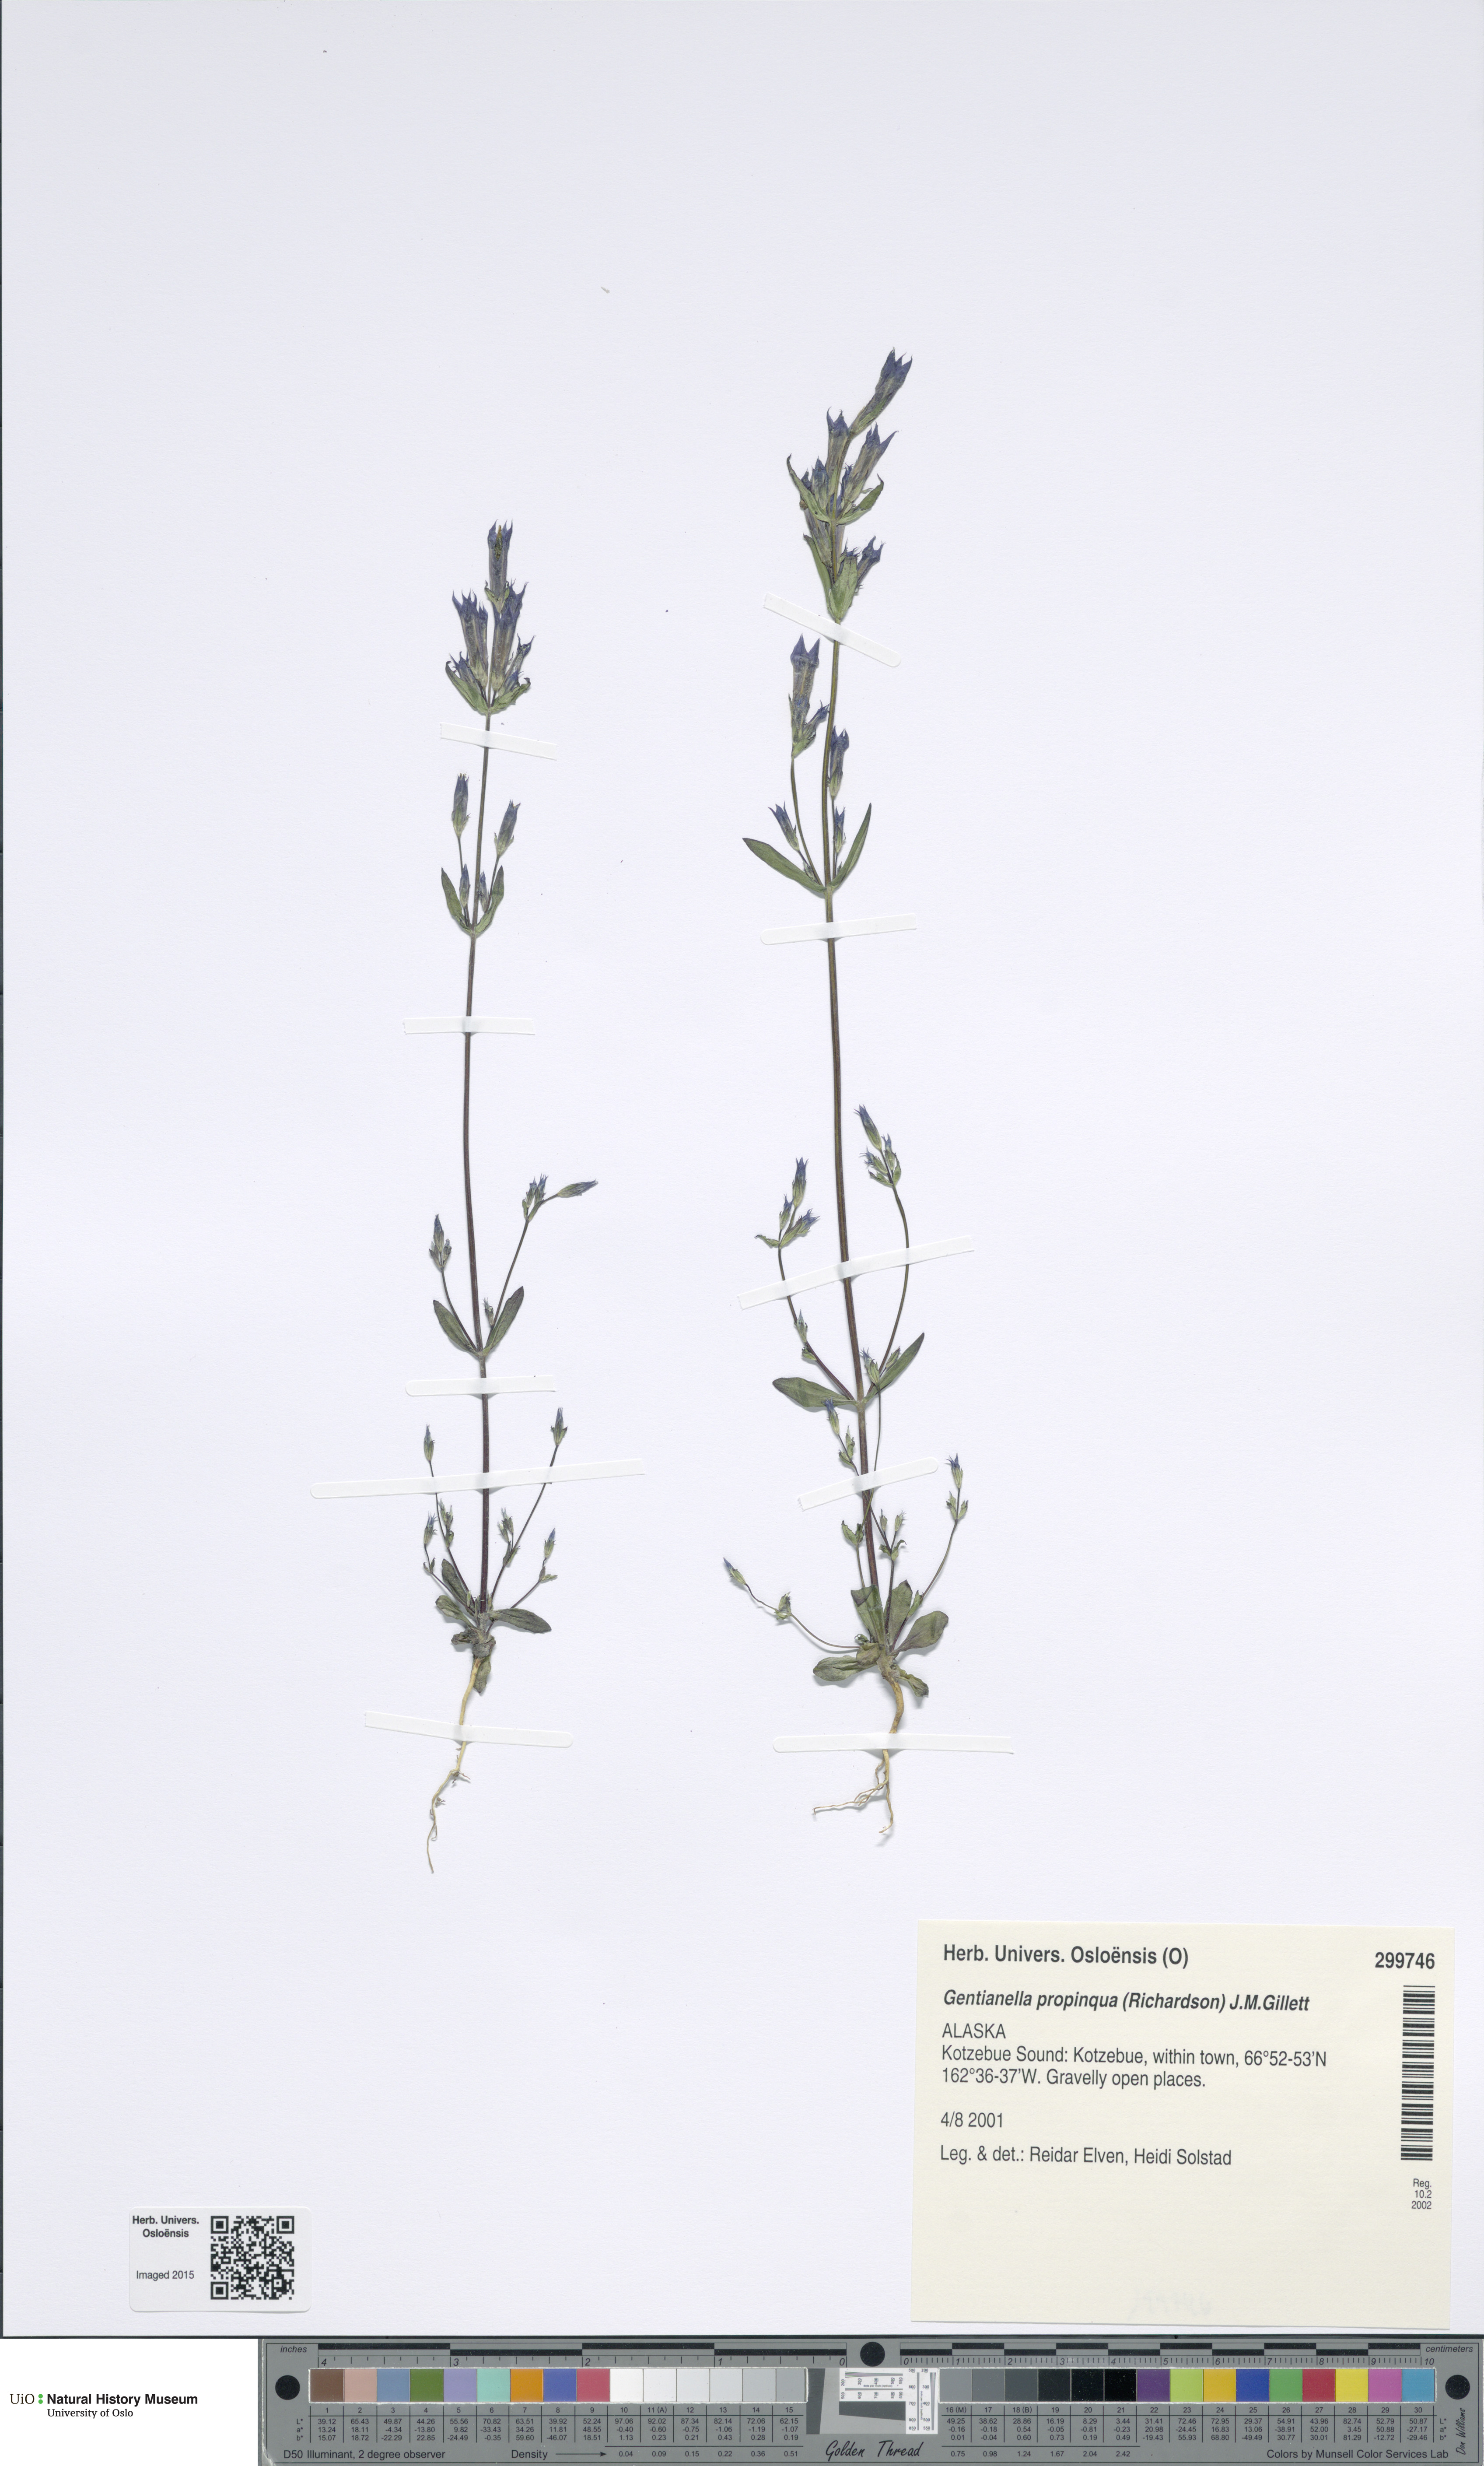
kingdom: Plantae
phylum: Tracheophyta
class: Magnoliopsida
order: Gentianales
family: Gentianaceae
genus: Gentianella
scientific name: Gentianella propinqua
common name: Four-parted dwarf-gentian
